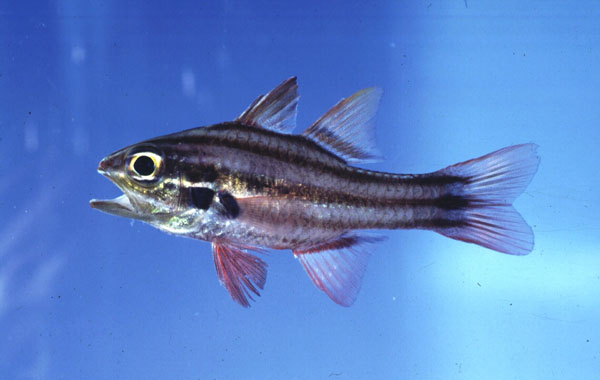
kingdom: Animalia
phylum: Chordata
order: Perciformes
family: Apogonidae
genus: Ostorhinchus
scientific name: Ostorhinchus taeniophorus
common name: Reef-flat cardinalfish
